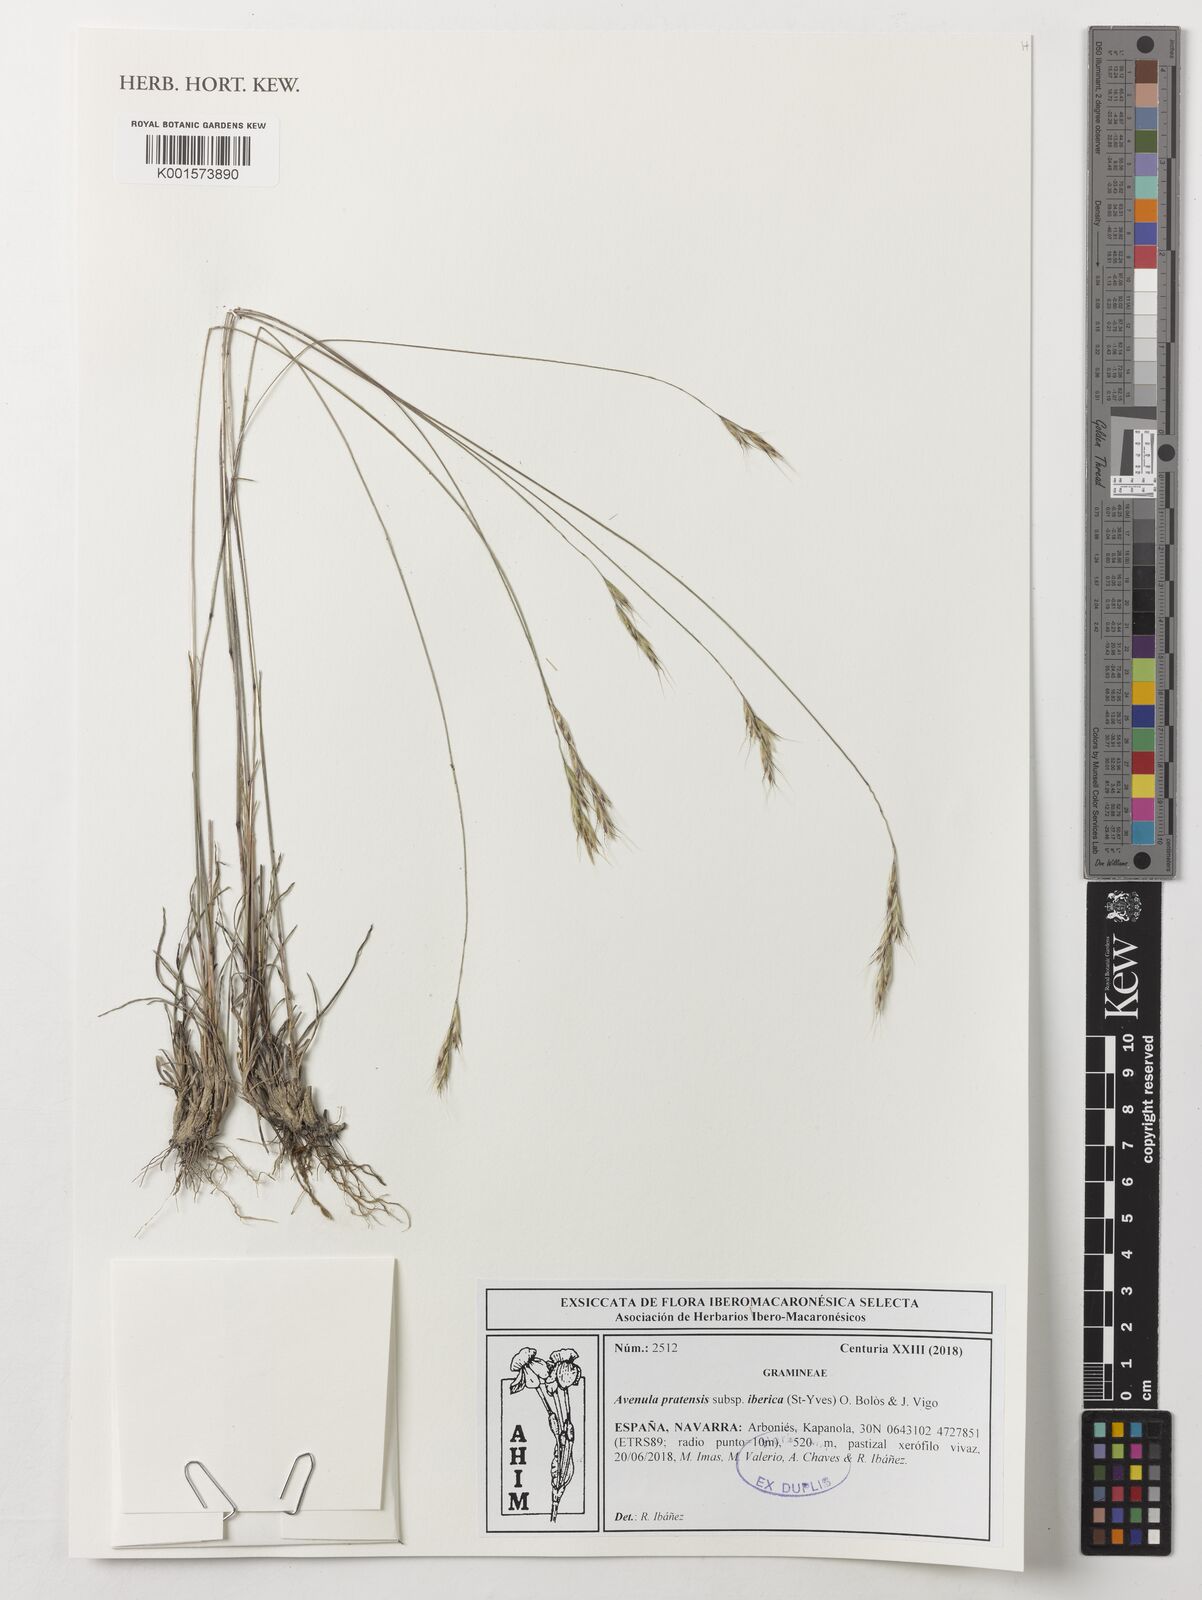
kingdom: Plantae
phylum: Tracheophyta
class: Liliopsida
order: Poales
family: Poaceae
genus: Helictochloa
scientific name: Helictochloa pratensis
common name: Meadow oat grass
